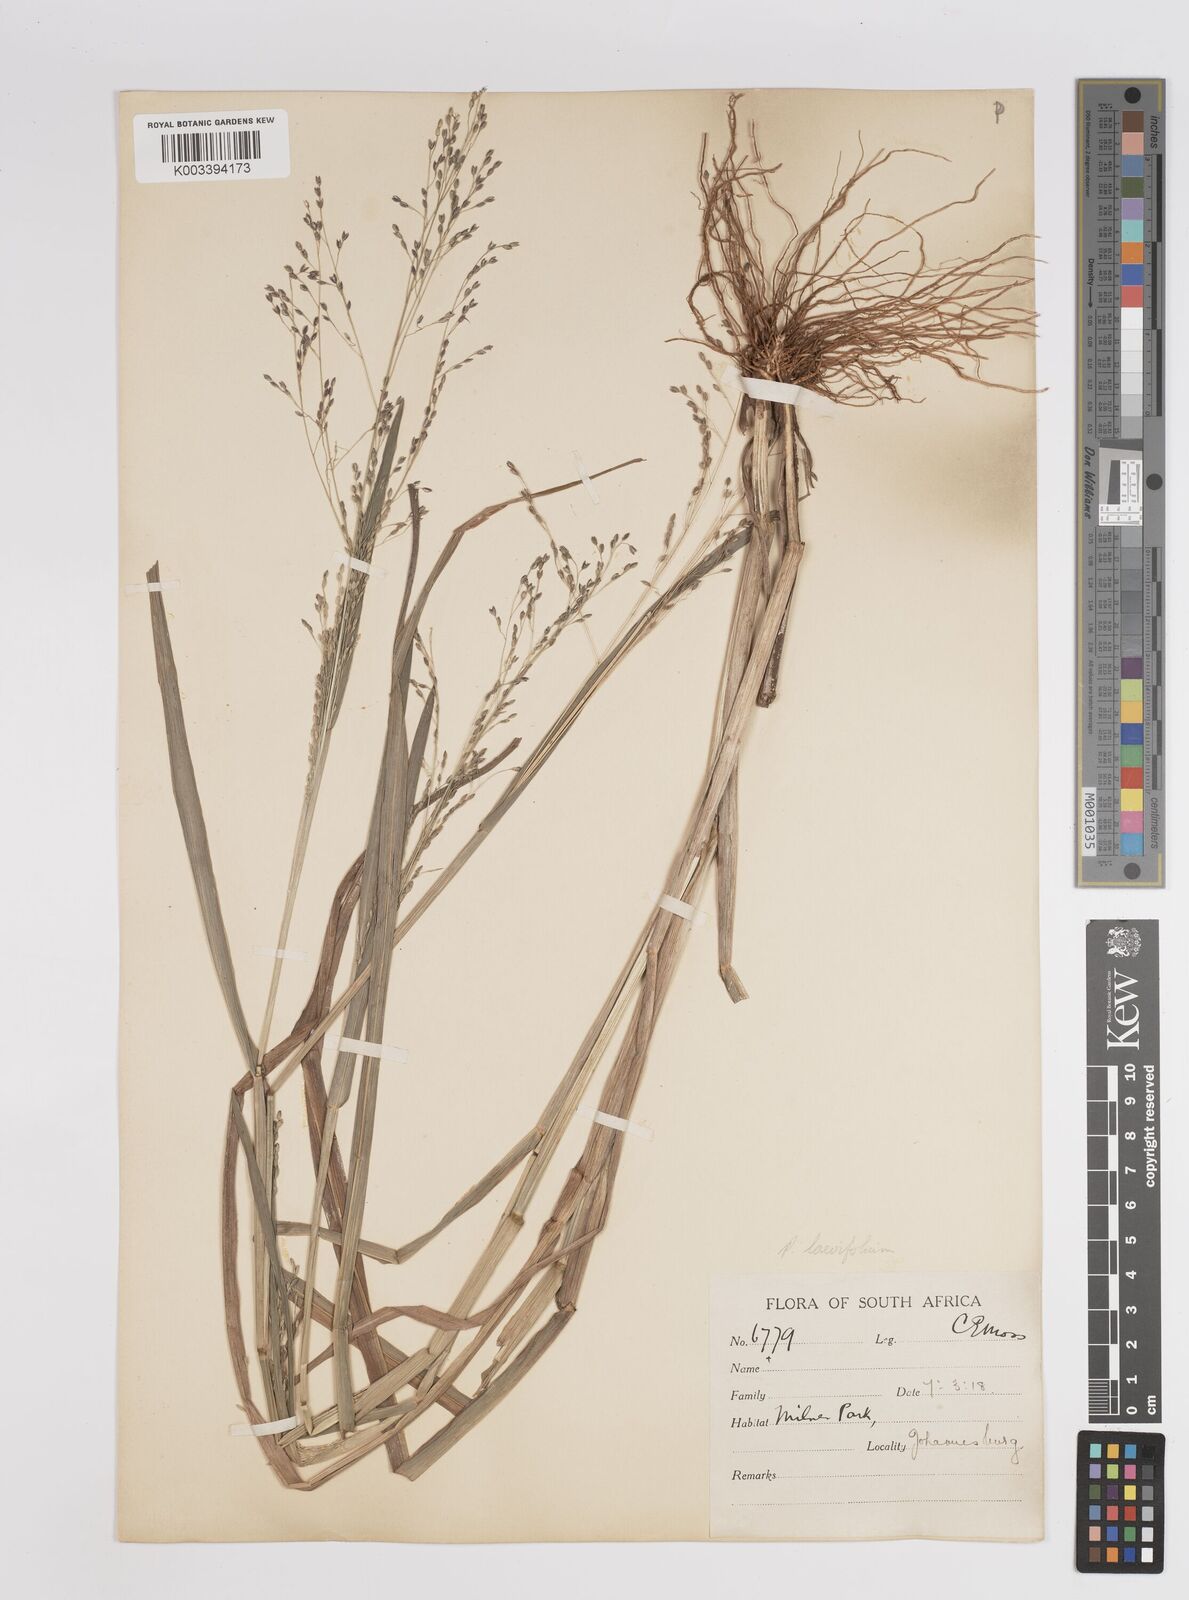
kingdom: Plantae
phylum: Tracheophyta
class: Liliopsida
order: Poales
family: Poaceae
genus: Panicum
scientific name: Panicum schinzii
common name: Sweet grass
